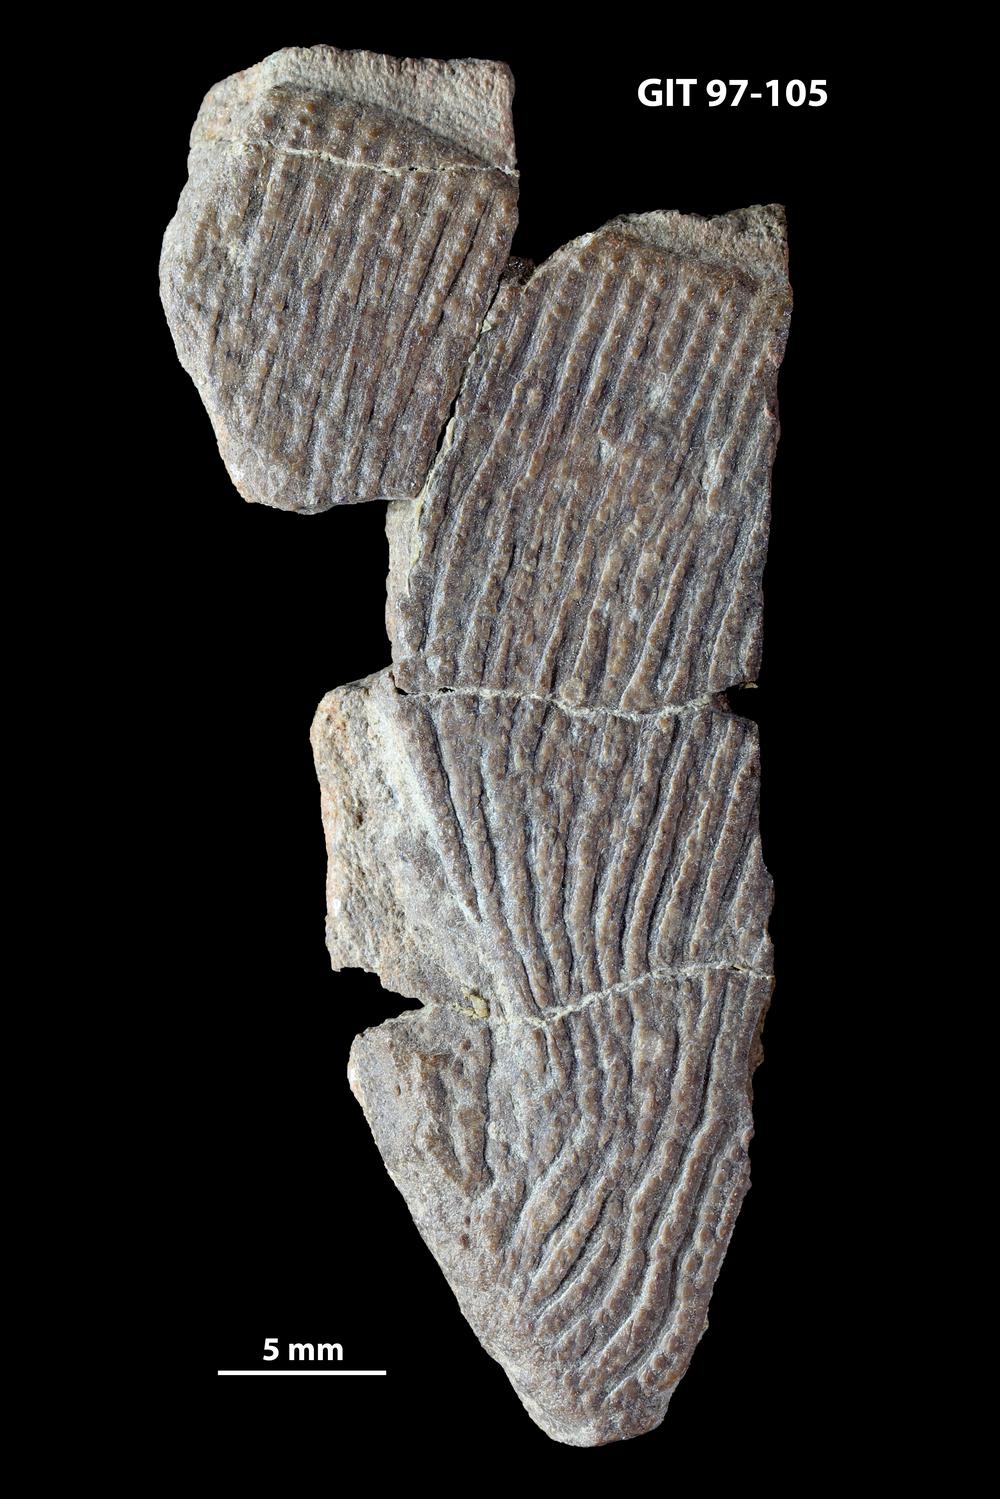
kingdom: Animalia
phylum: Chordata
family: Holonematidae
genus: Holonema
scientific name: Holonema
